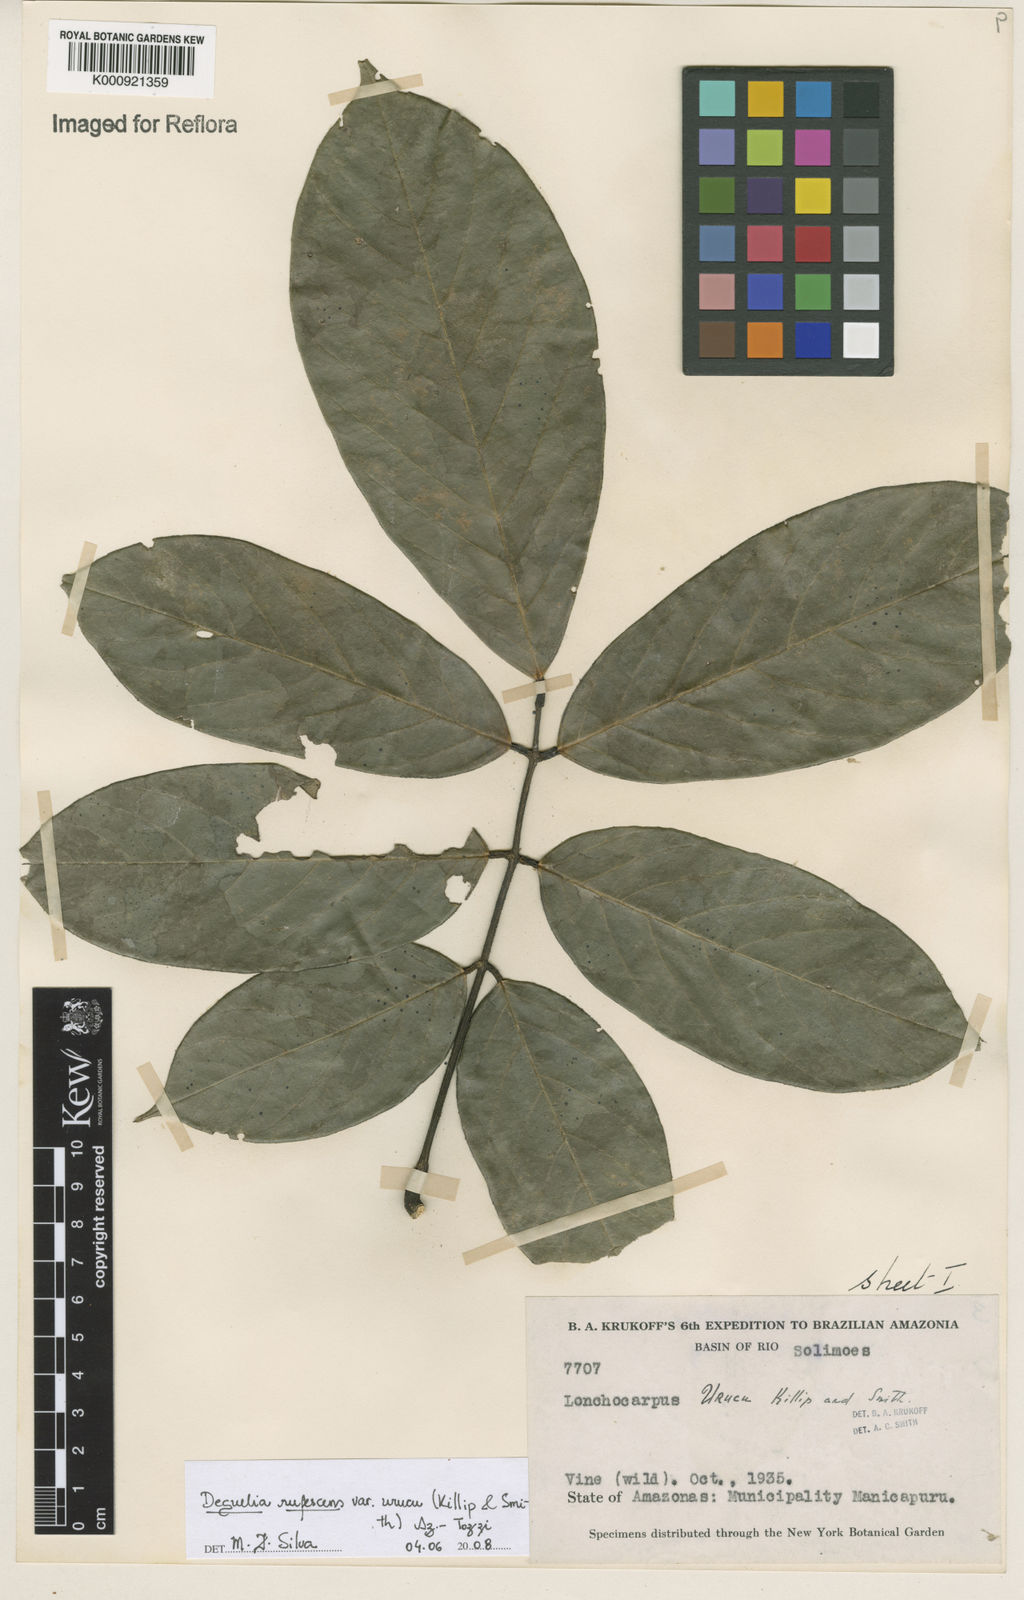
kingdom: Plantae
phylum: Tracheophyta
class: Magnoliopsida
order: Fabales
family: Fabaceae
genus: Deguelia
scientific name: Deguelia
